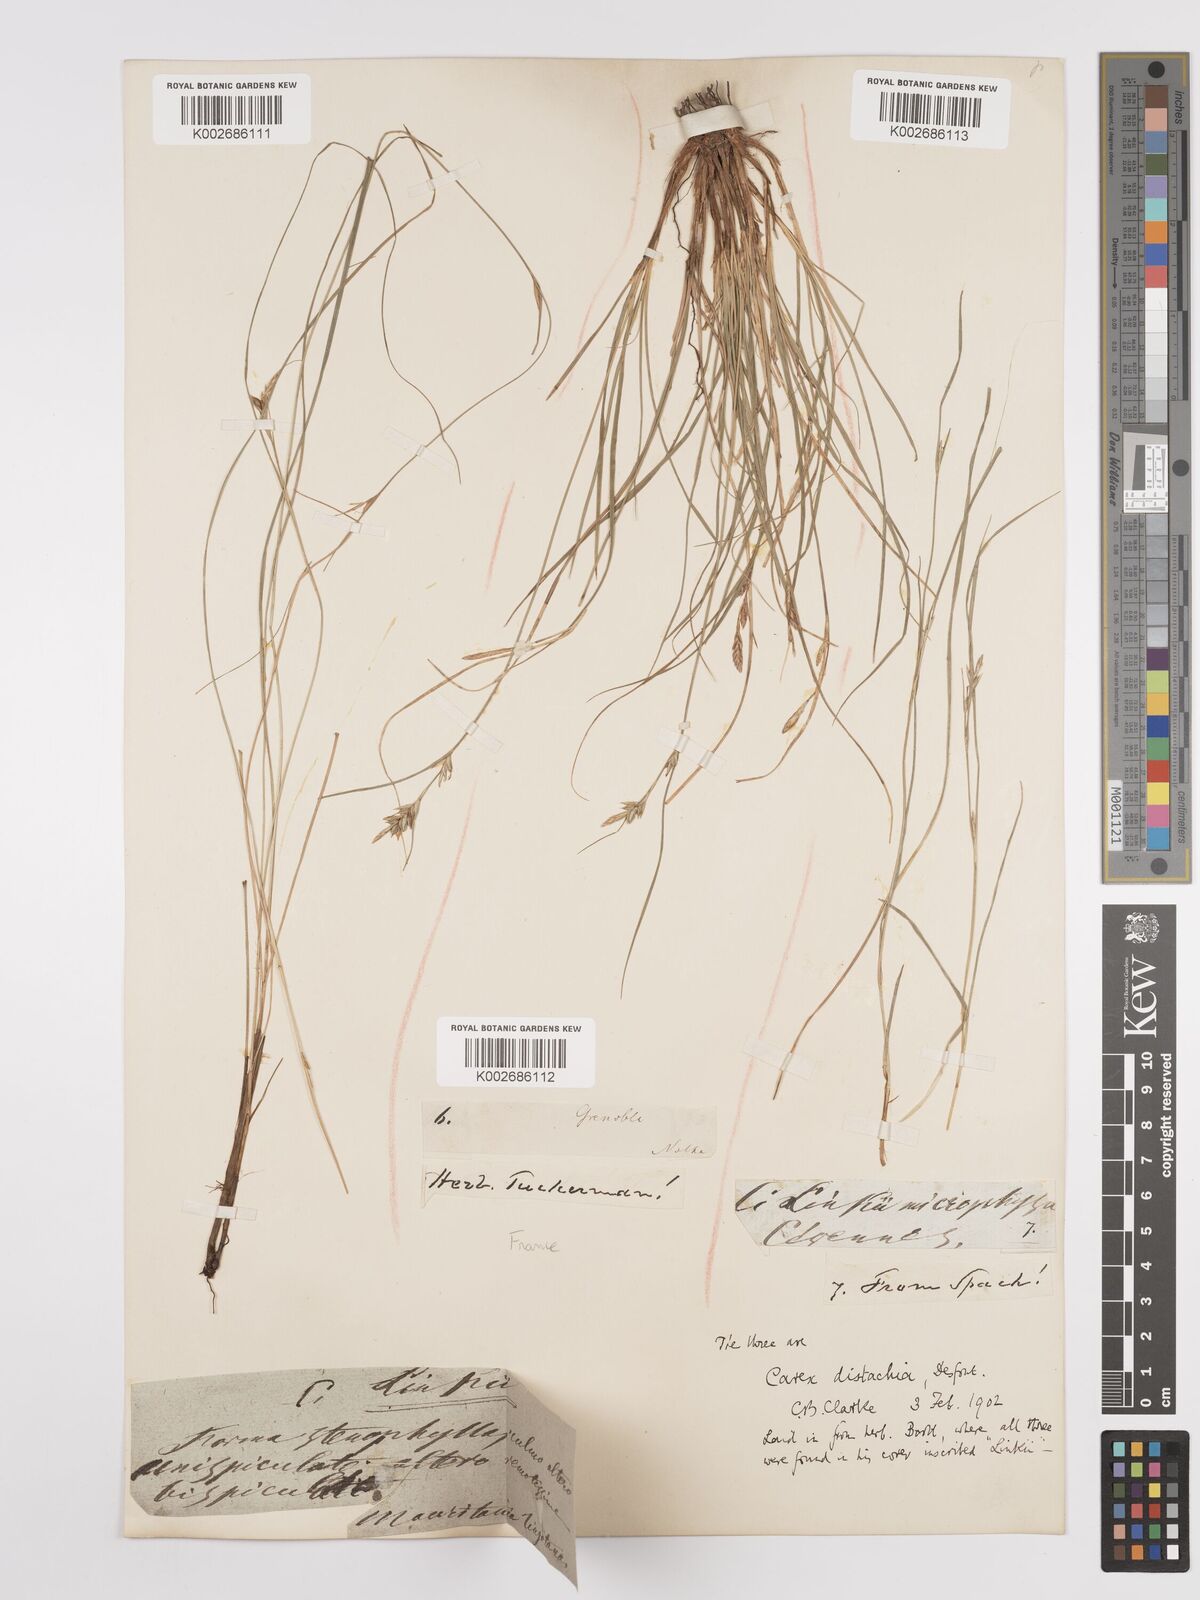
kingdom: Plantae
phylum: Tracheophyta
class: Liliopsida
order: Poales
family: Cyperaceae
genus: Carex
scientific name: Carex distachya
